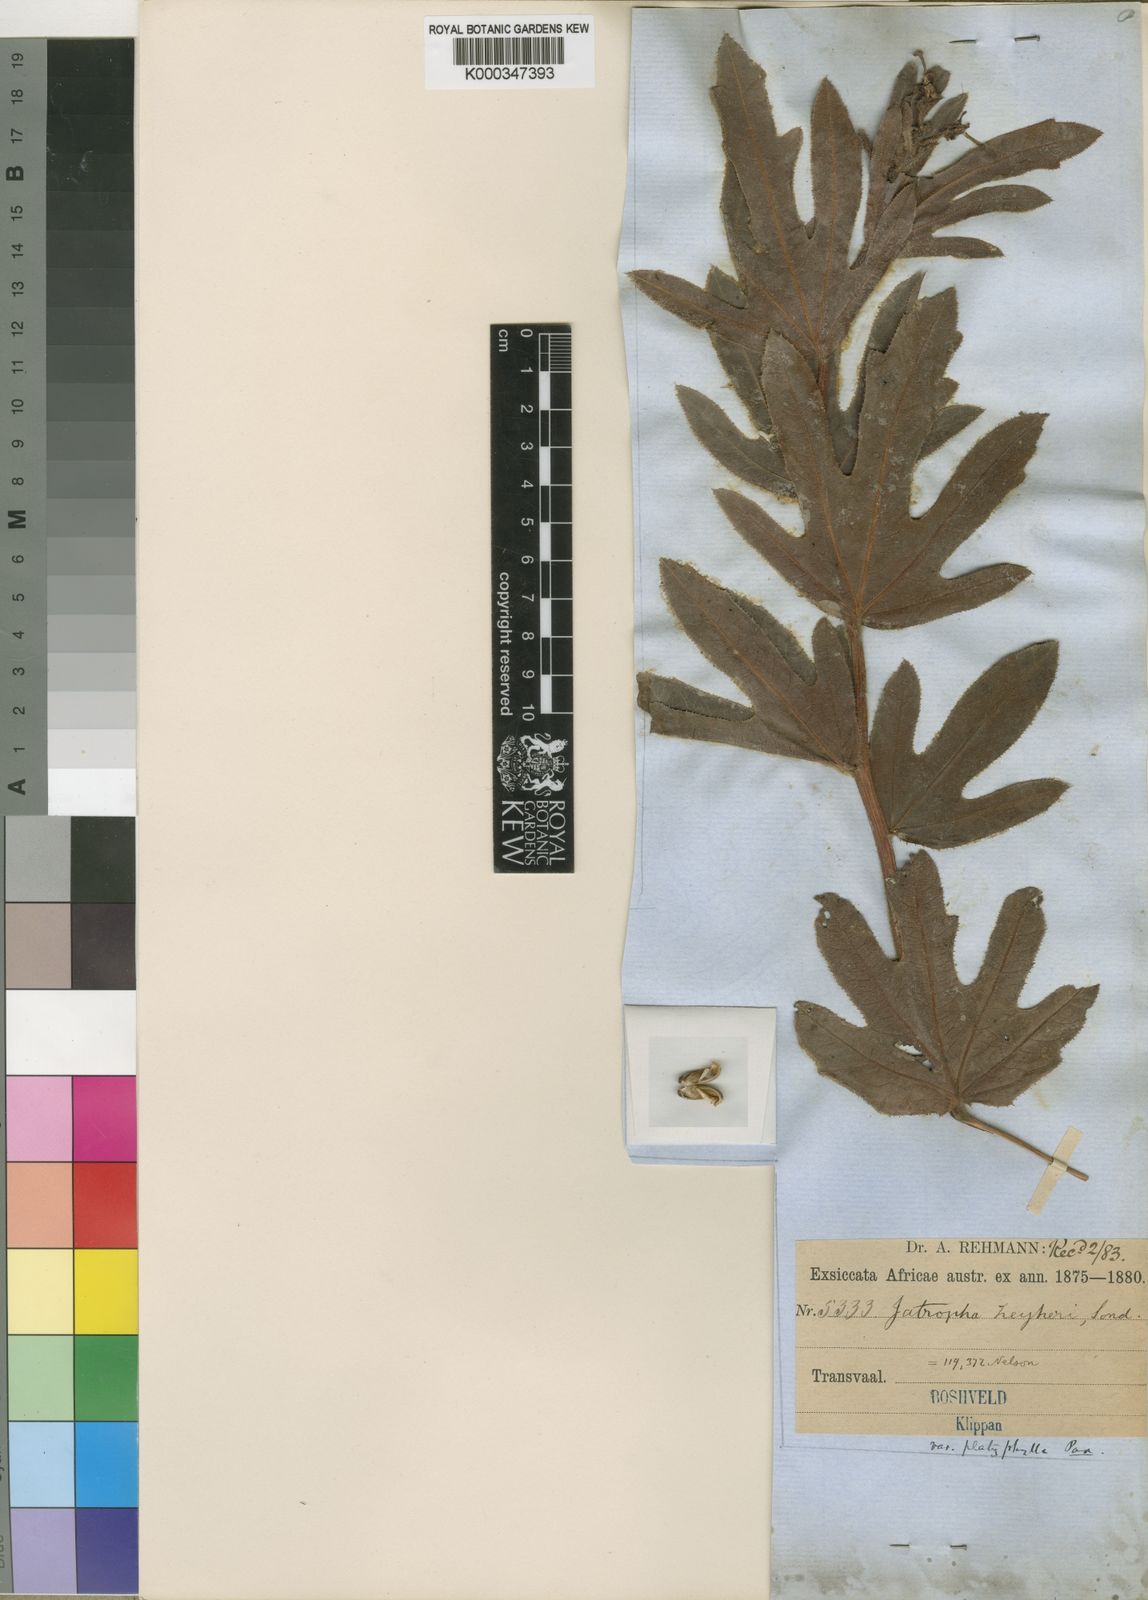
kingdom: Plantae
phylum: Tracheophyta
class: Magnoliopsida
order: Malpighiales
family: Euphorbiaceae
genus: Jatropha
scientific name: Jatropha zeyheri
